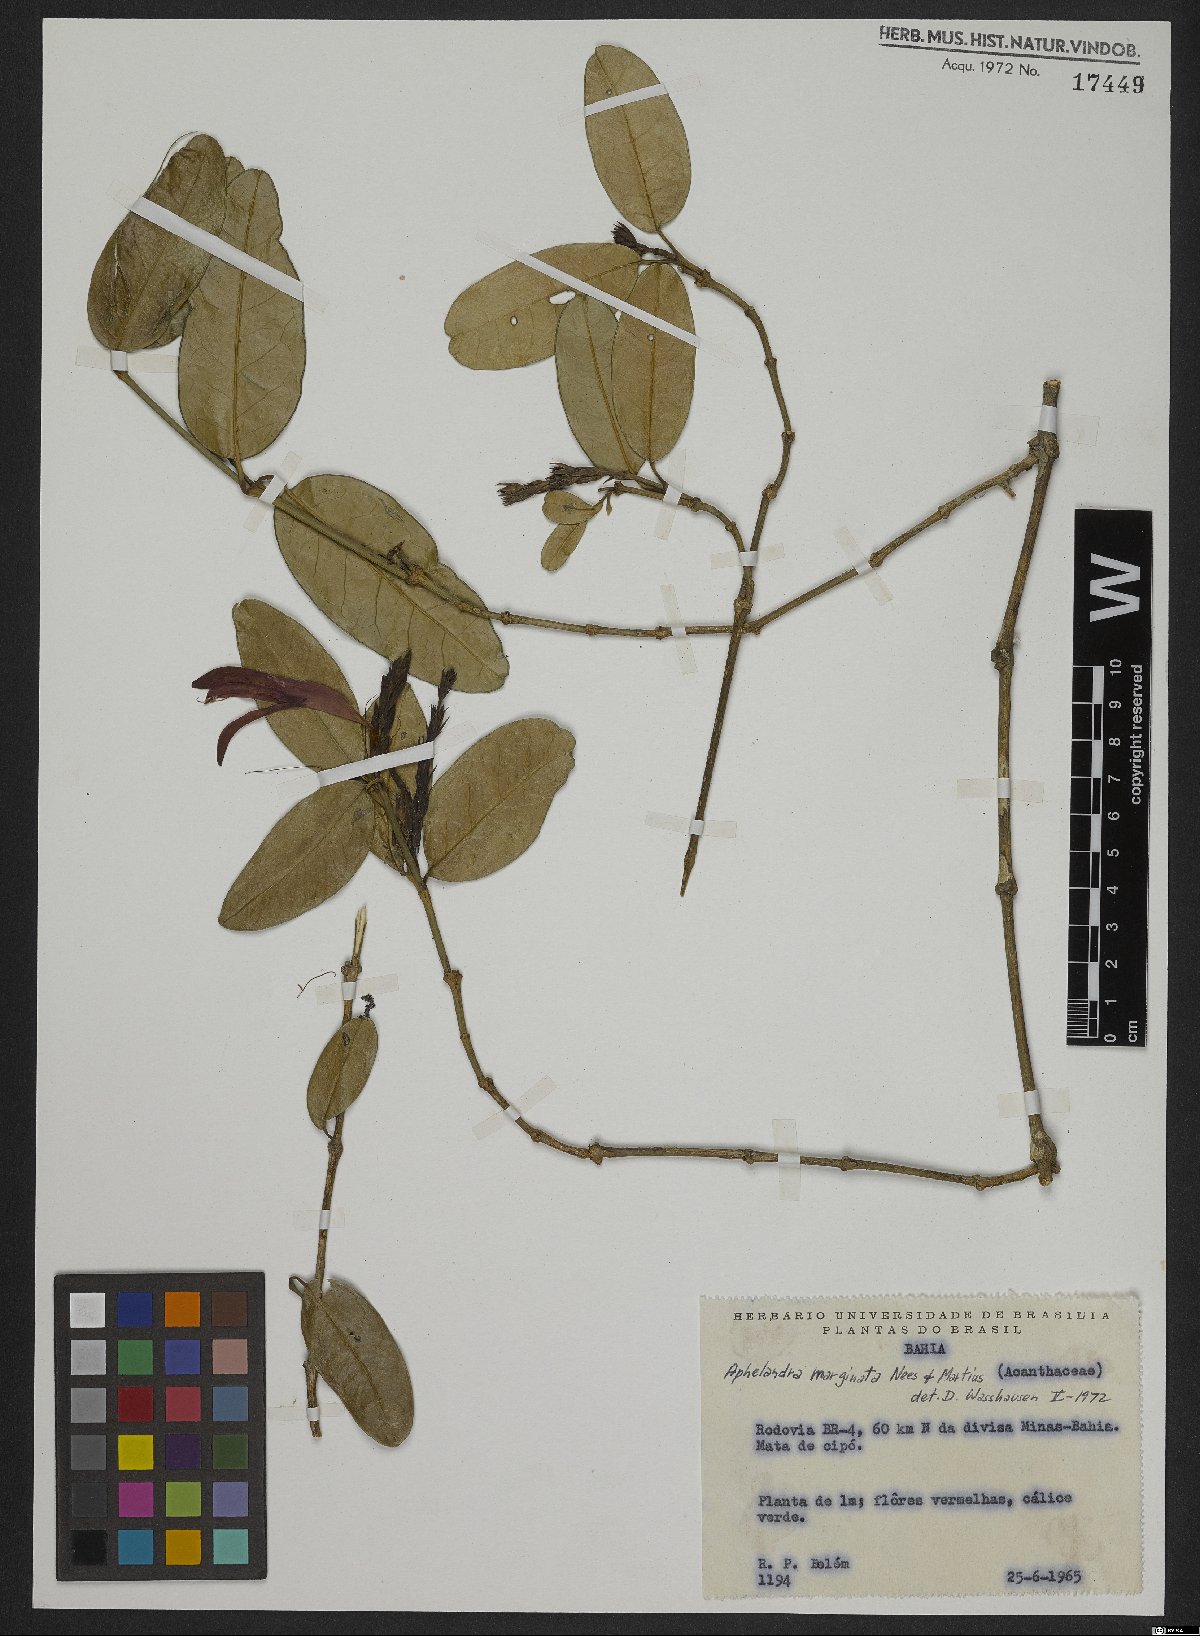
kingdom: Plantae
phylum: Tracheophyta
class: Magnoliopsida
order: Lamiales
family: Acanthaceae
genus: Aphelandra
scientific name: Aphelandra marginata
